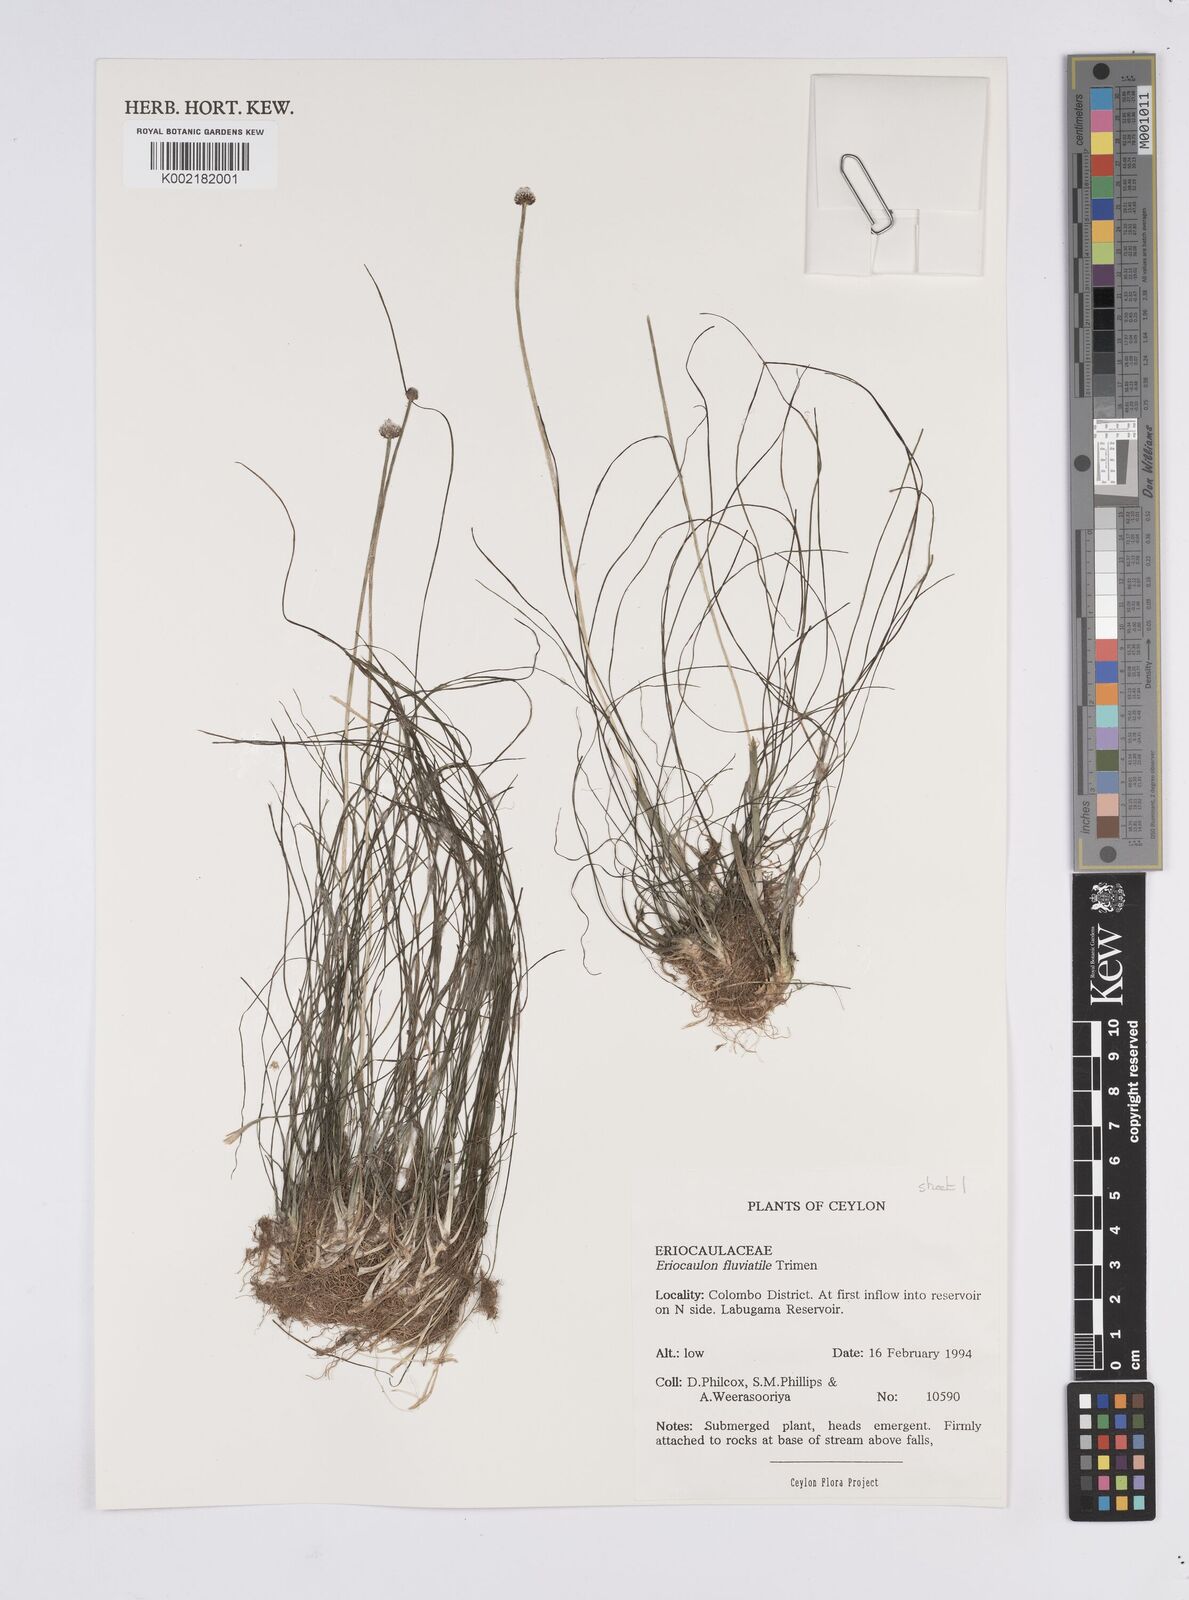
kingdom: Plantae
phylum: Tracheophyta
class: Liliopsida
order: Poales
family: Eriocaulaceae
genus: Eriocaulon
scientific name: Eriocaulon fluviatile
